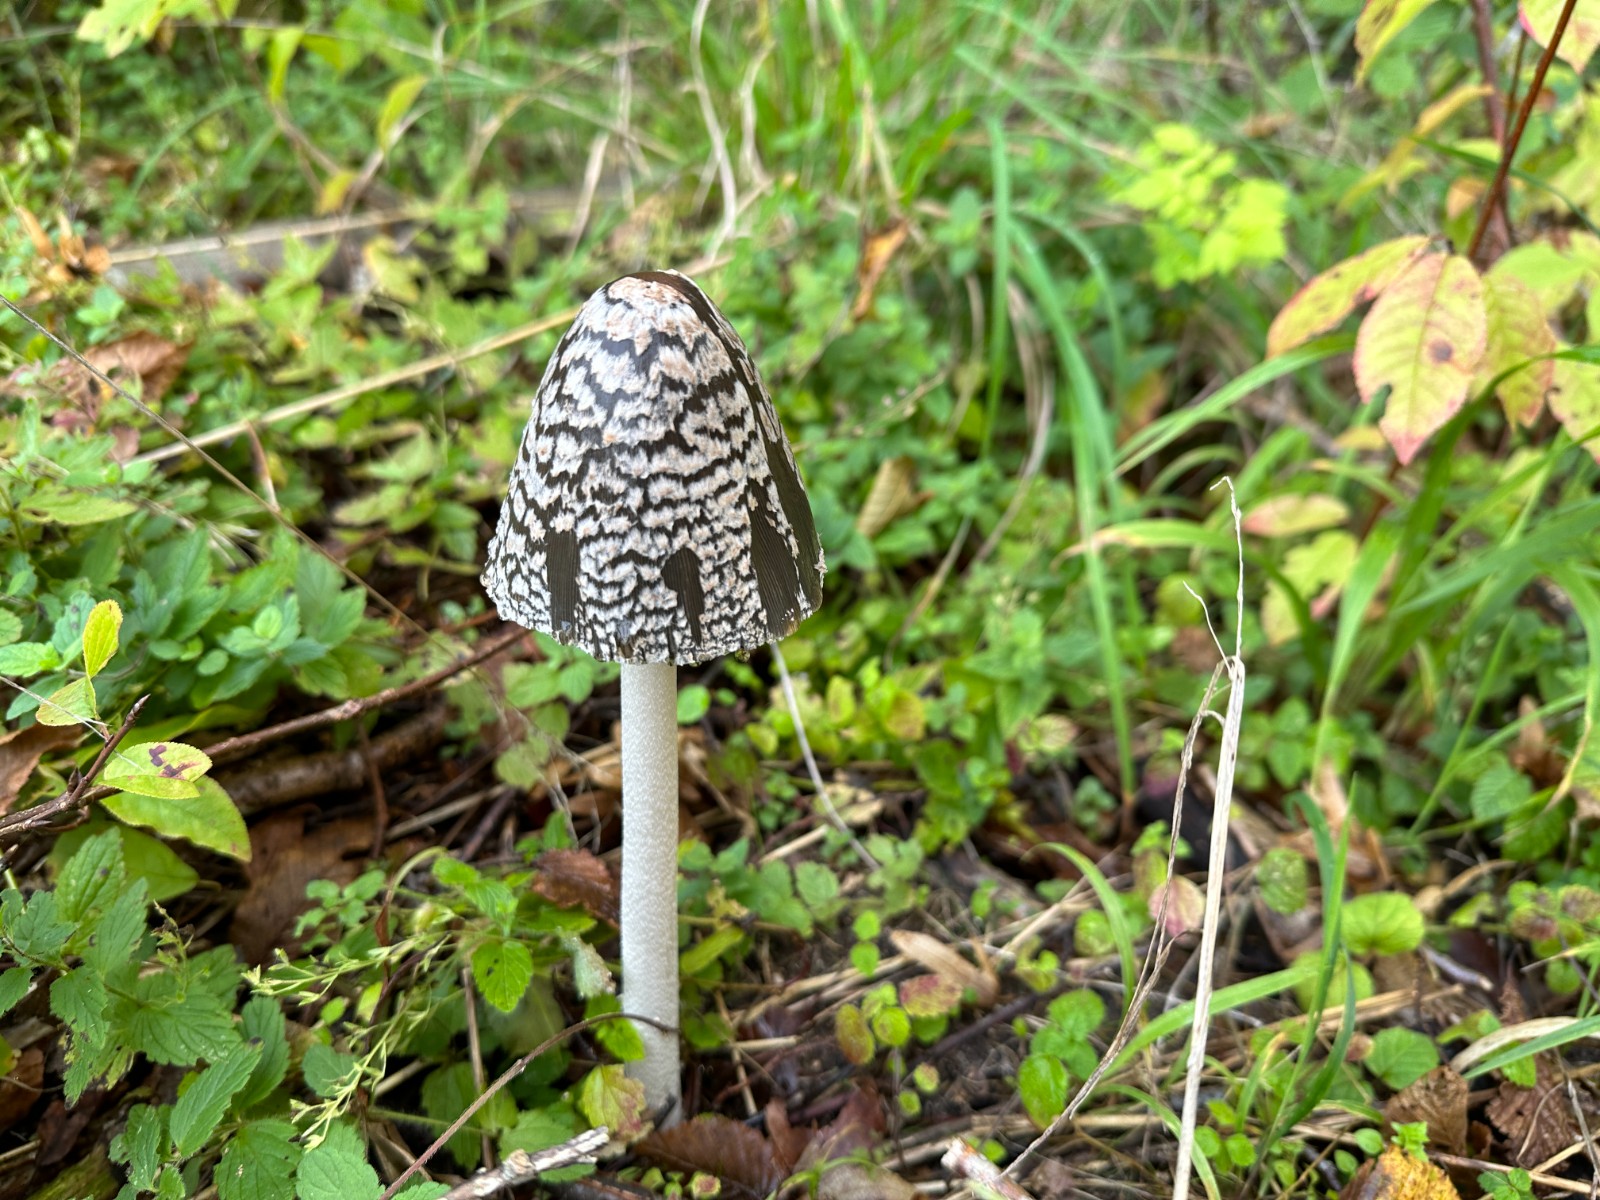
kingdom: Fungi
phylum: Basidiomycota
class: Agaricomycetes
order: Agaricales
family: Psathyrellaceae
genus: Coprinopsis
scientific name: Coprinopsis picacea
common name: skade-blækhat
